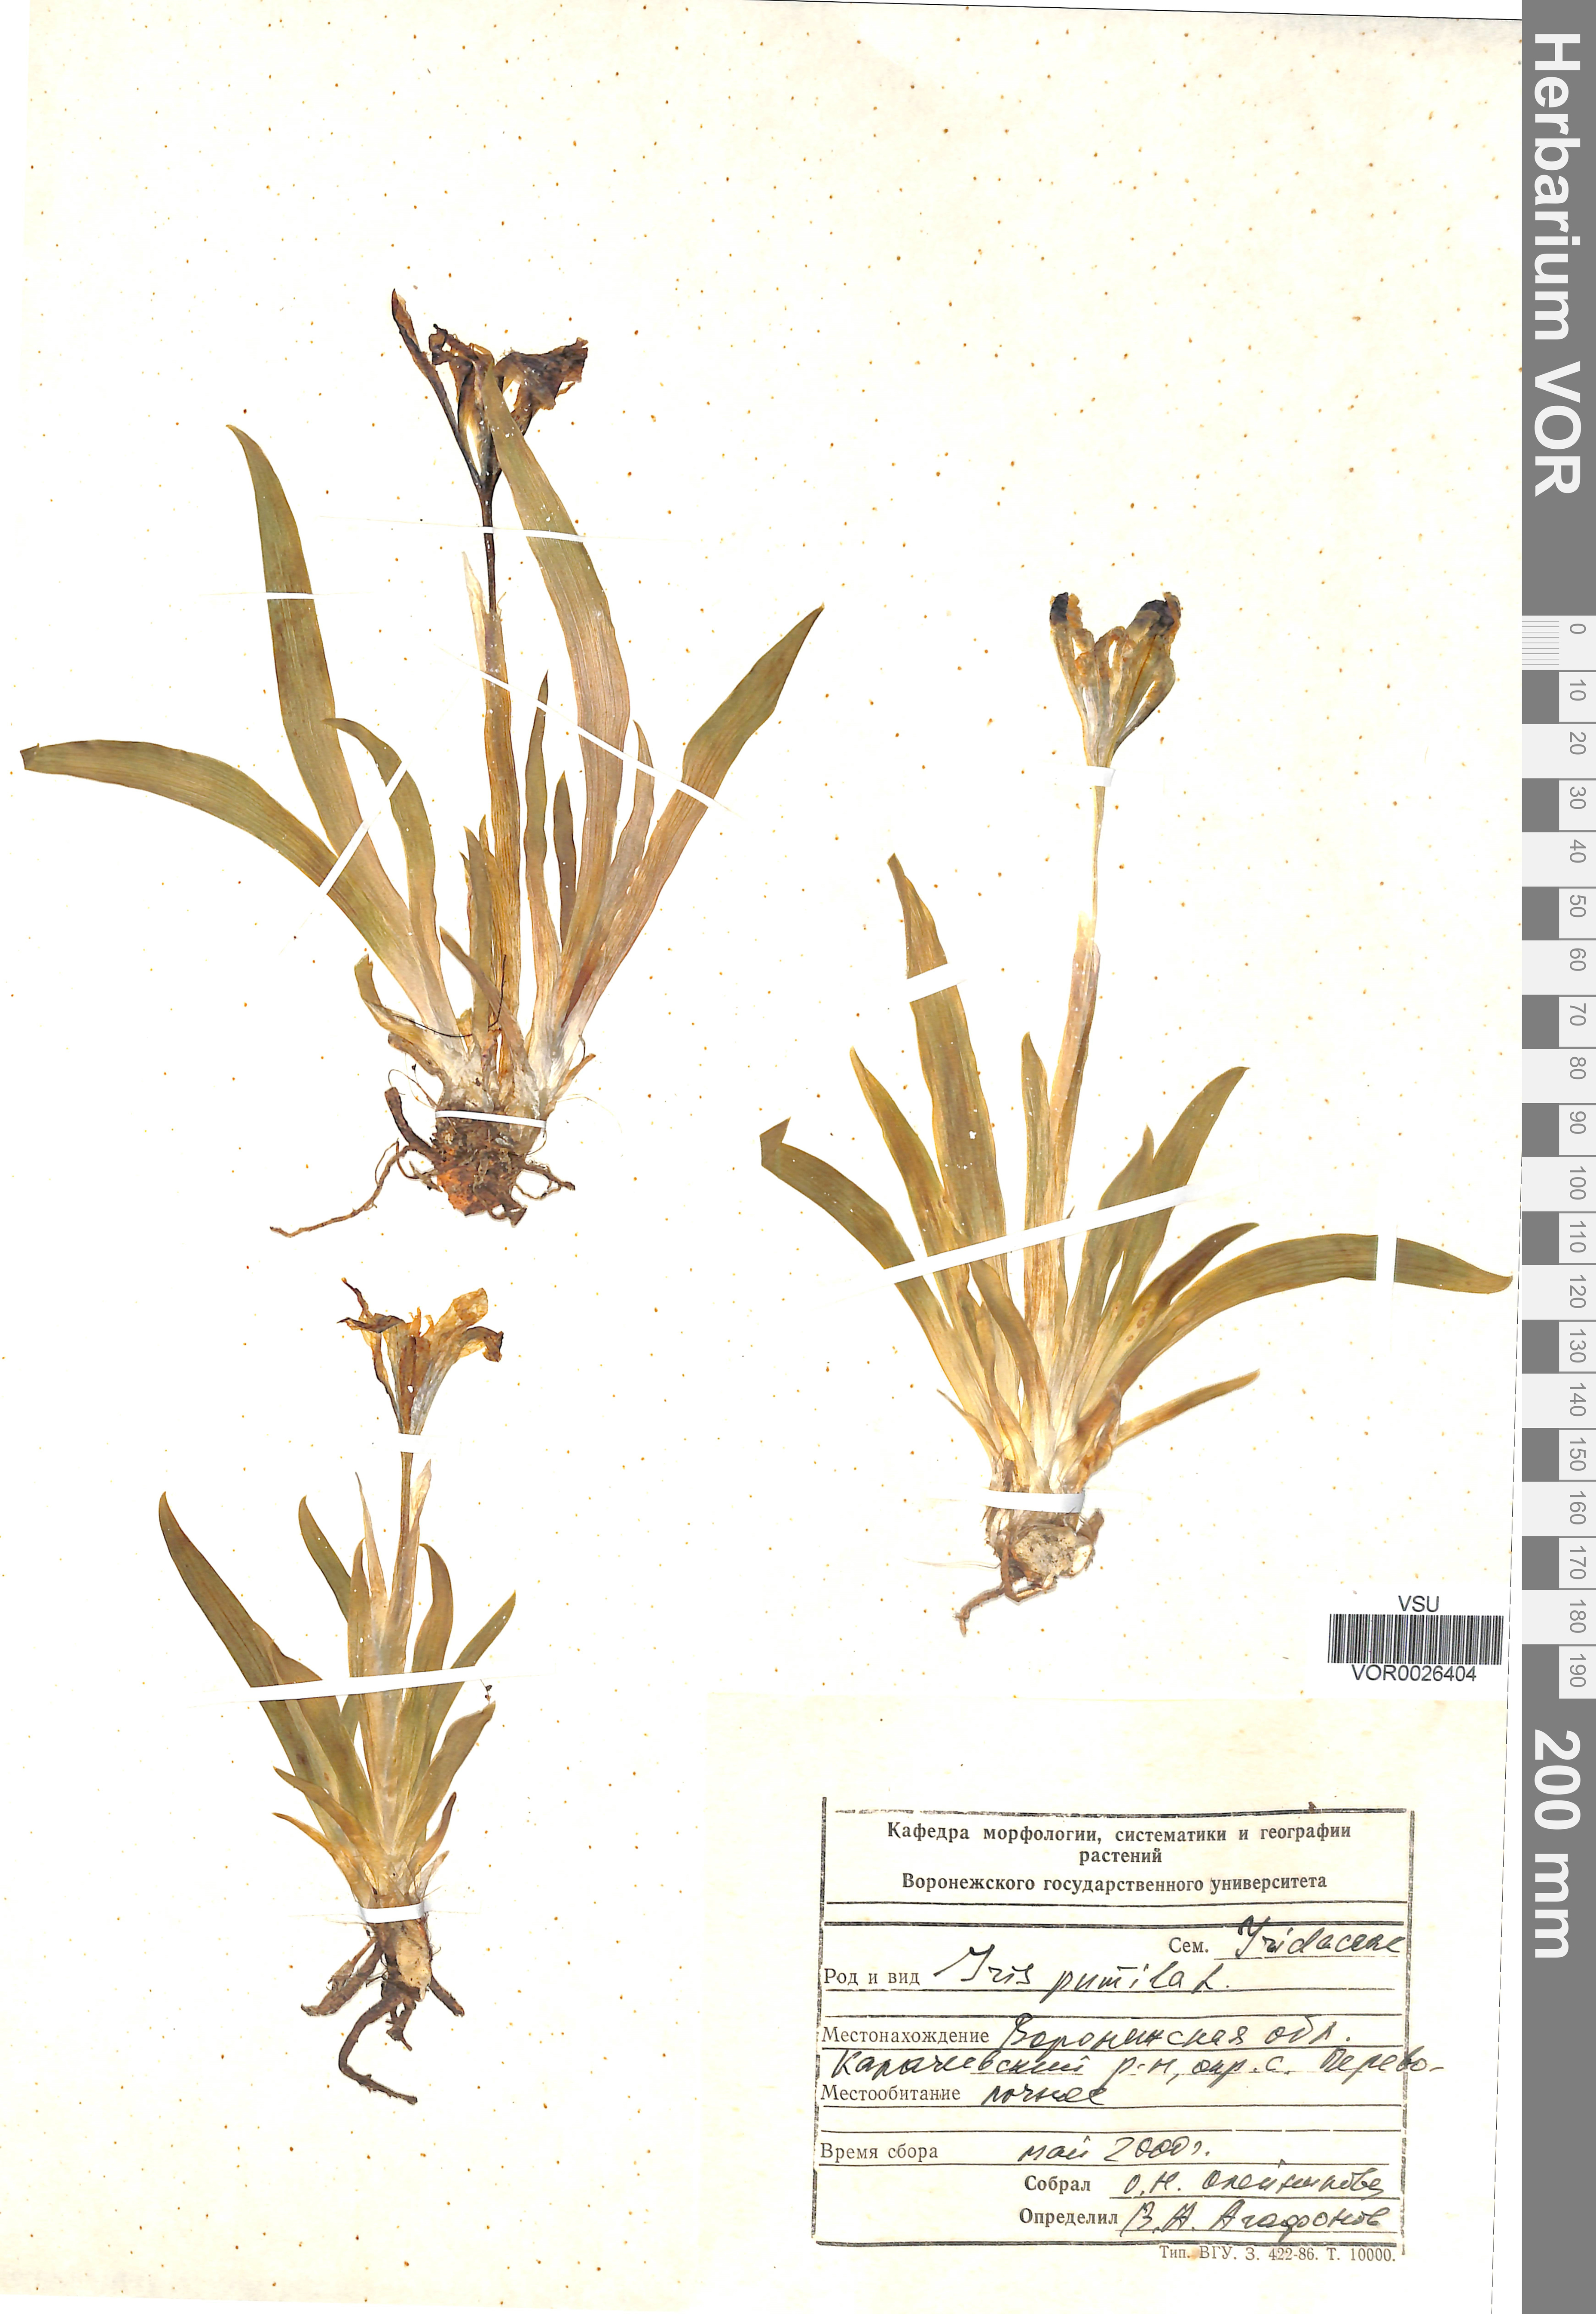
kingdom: Plantae
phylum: Tracheophyta
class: Liliopsida
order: Asparagales
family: Iridaceae
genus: Iris
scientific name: Iris pumila
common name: Dwarf iris
